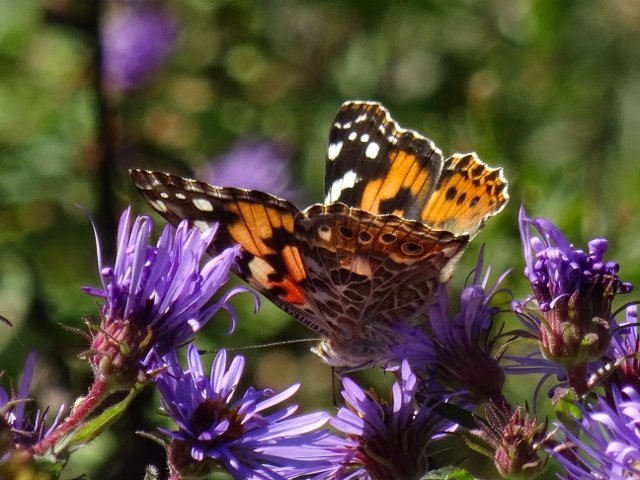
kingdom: Animalia
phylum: Arthropoda
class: Insecta
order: Lepidoptera
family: Nymphalidae
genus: Vanessa
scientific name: Vanessa cardui
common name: Painted Lady
